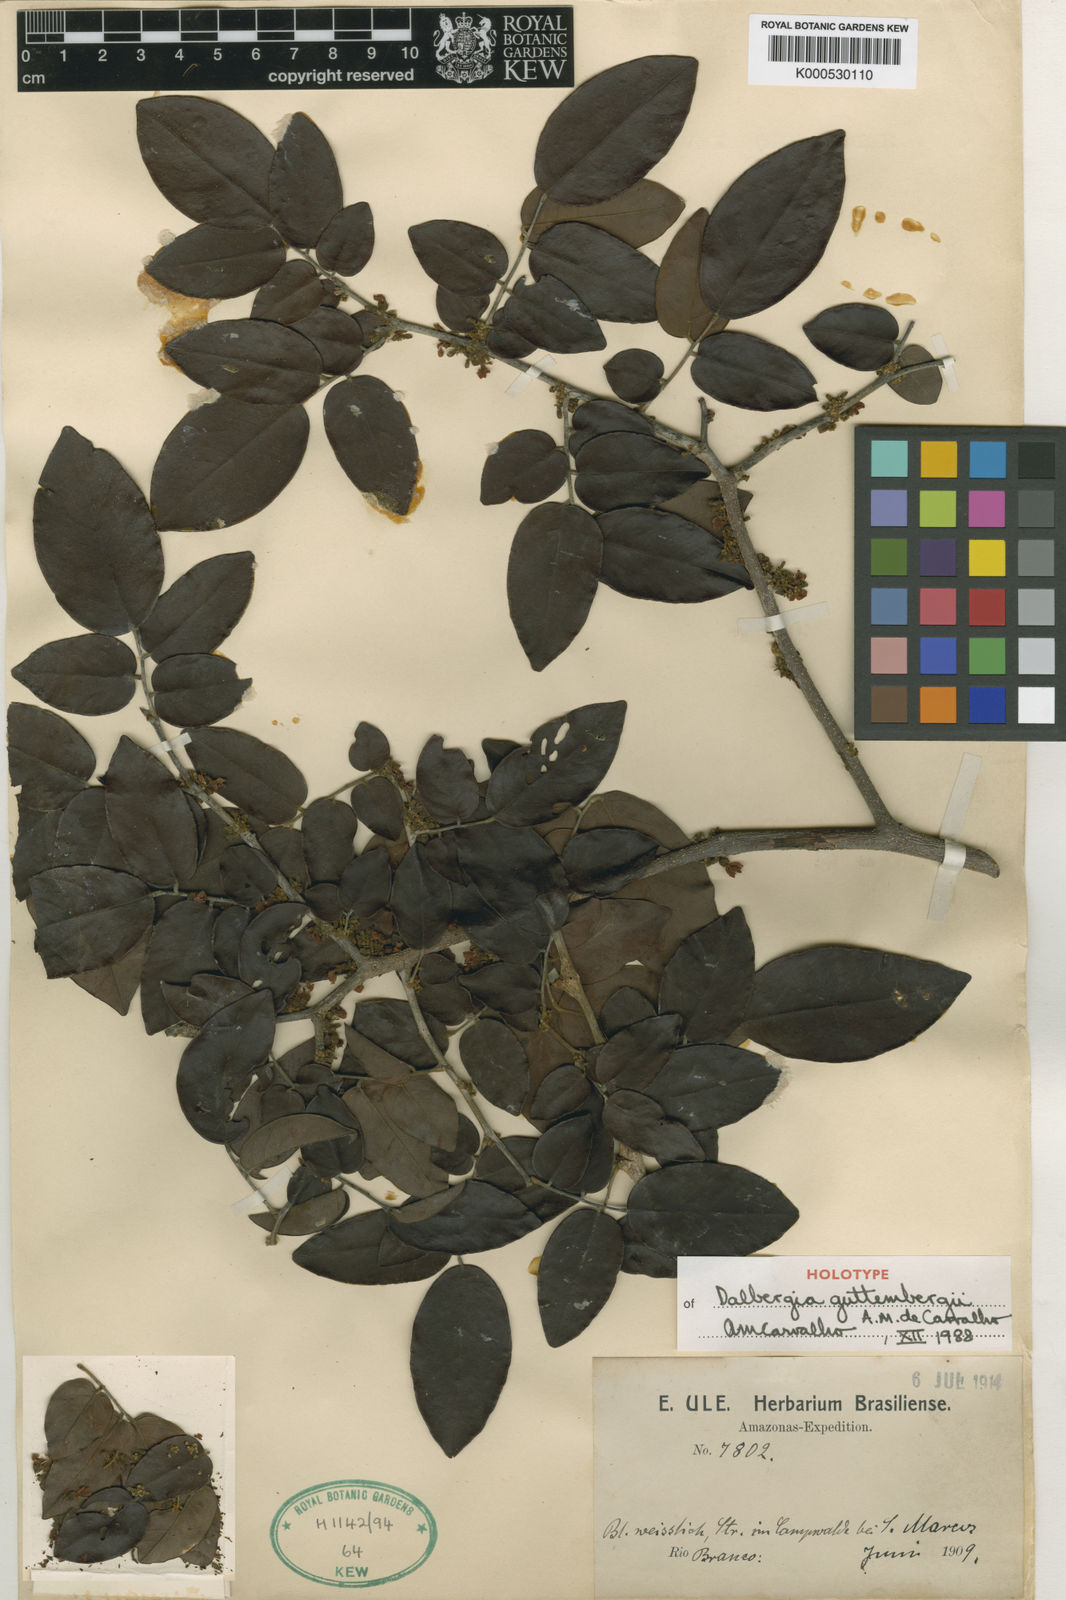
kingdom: Plantae
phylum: Tracheophyta
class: Magnoliopsida
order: Fabales
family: Fabaceae
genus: Dalbergia
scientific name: Dalbergia guttembergii
